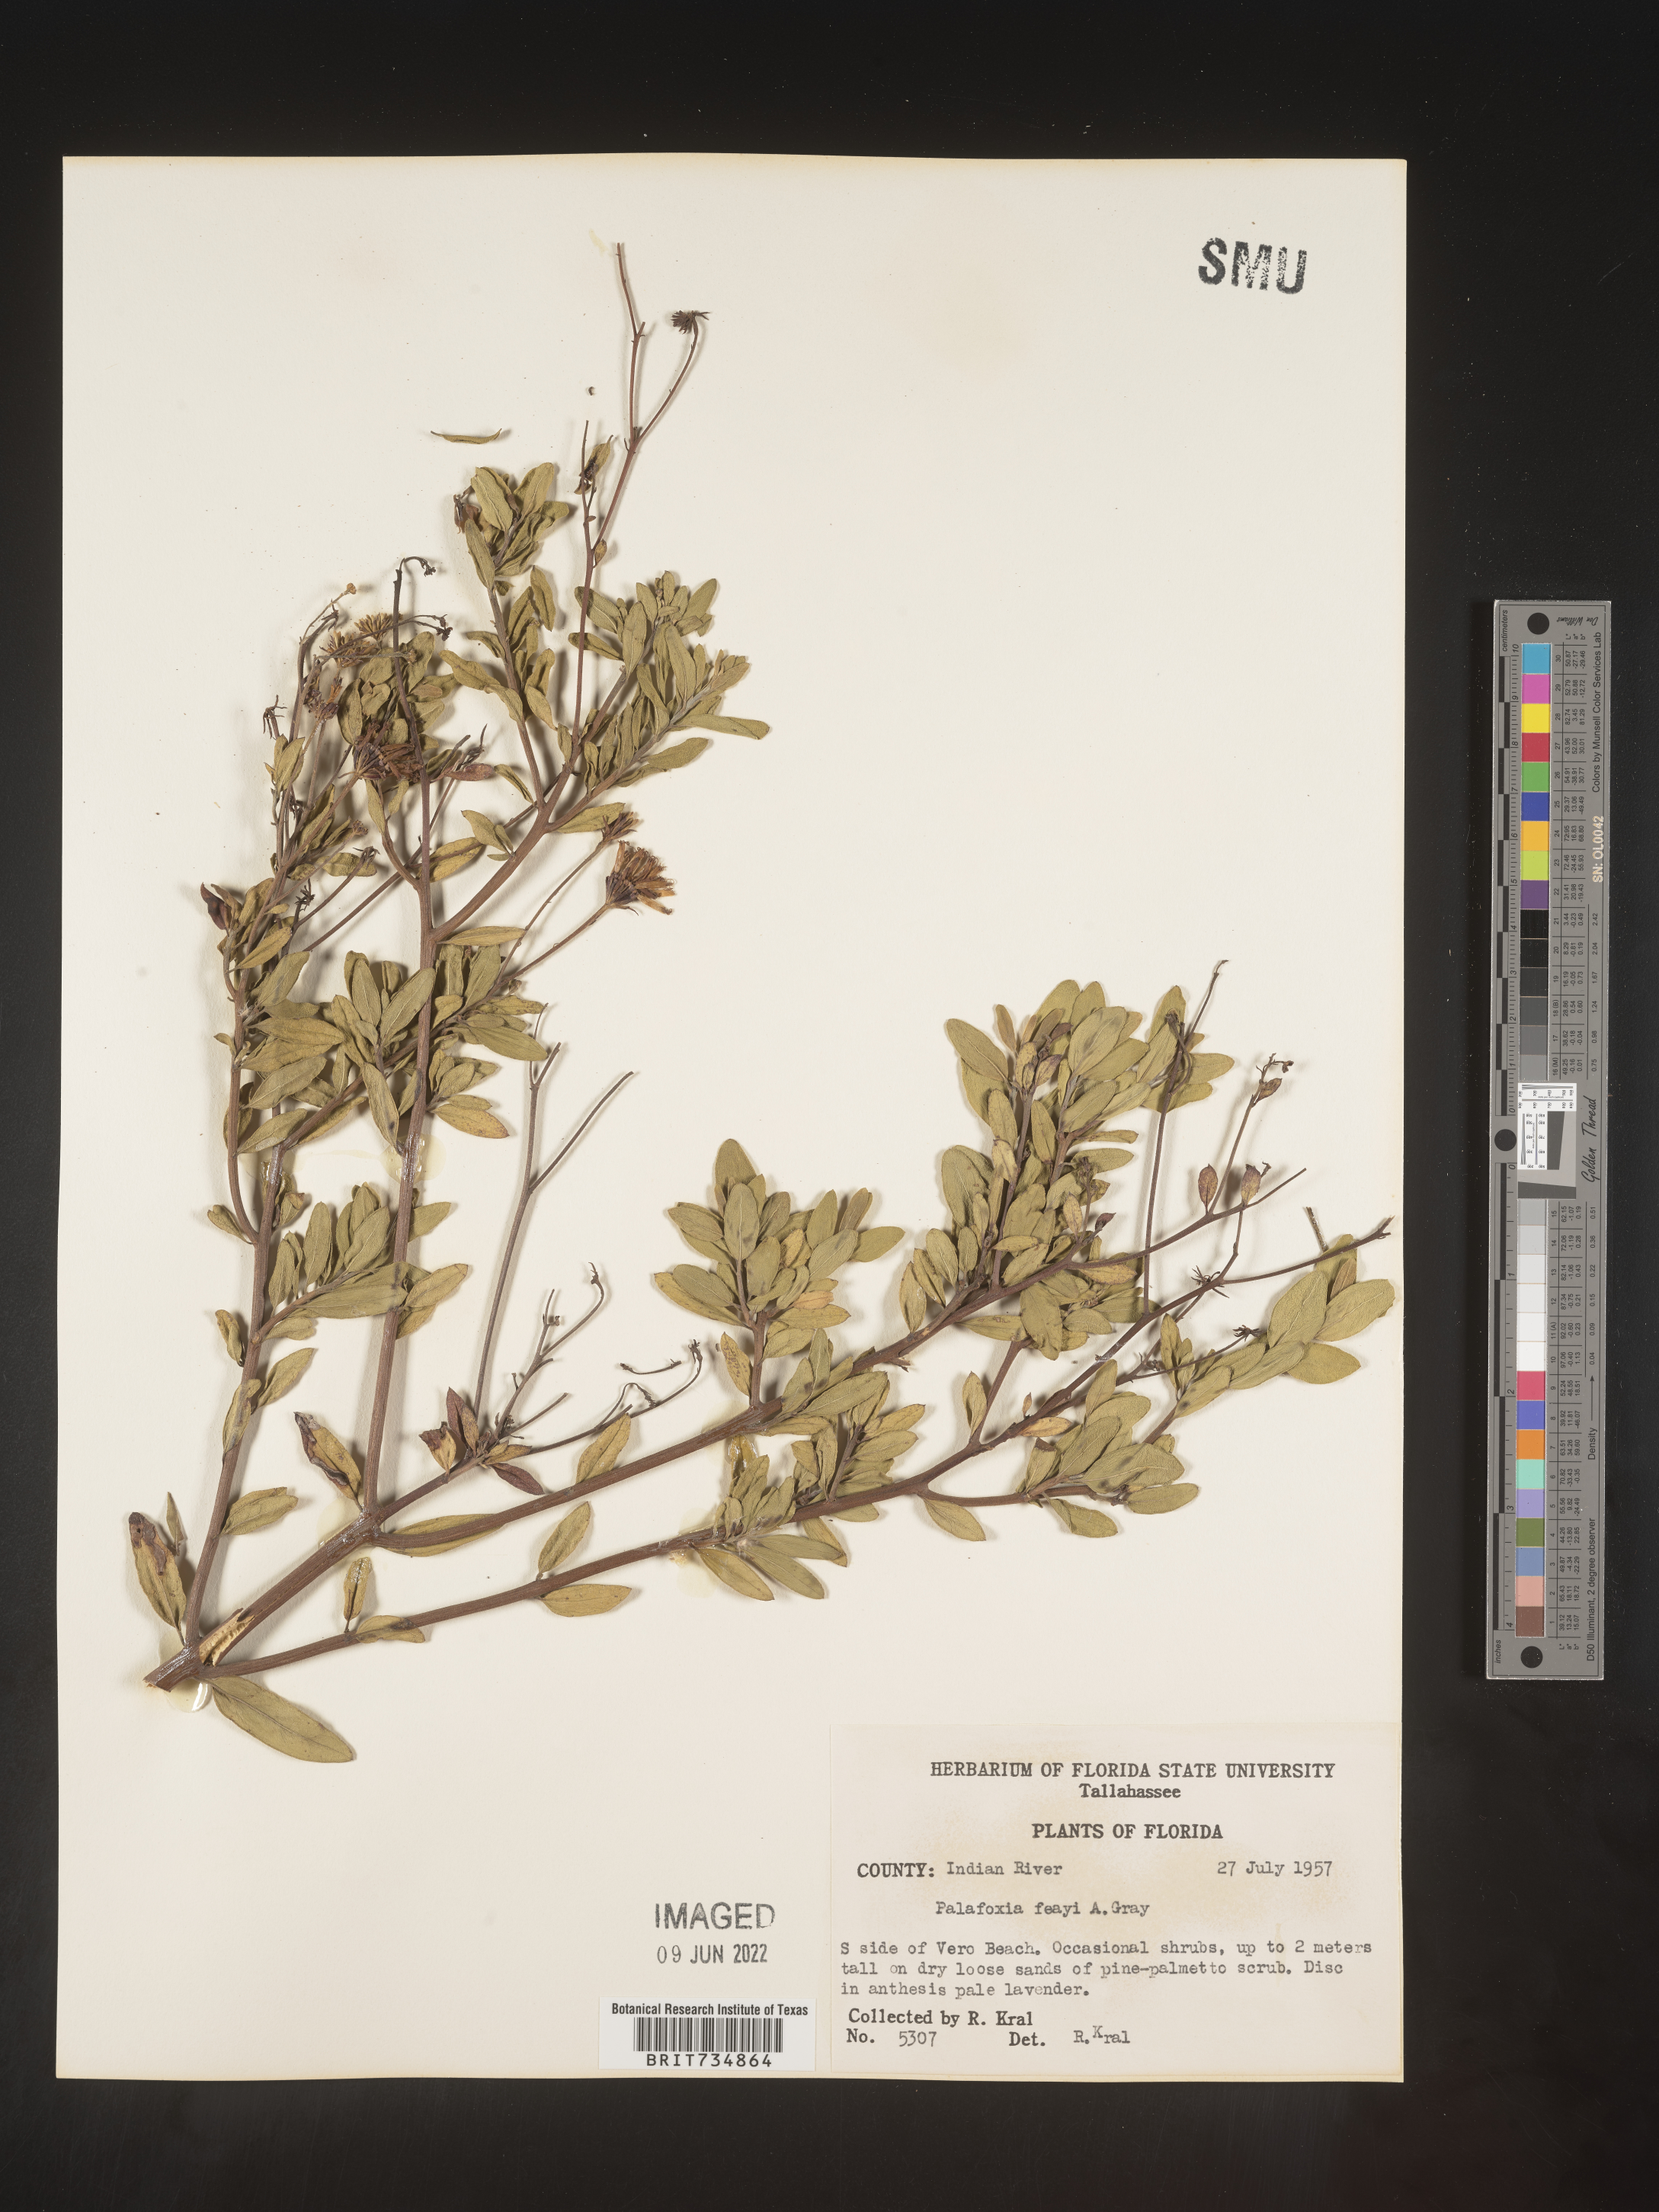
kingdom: Plantae
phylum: Tracheophyta
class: Magnoliopsida
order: Asterales
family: Asteraceae
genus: Palafoxia
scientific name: Palafoxia feayi
